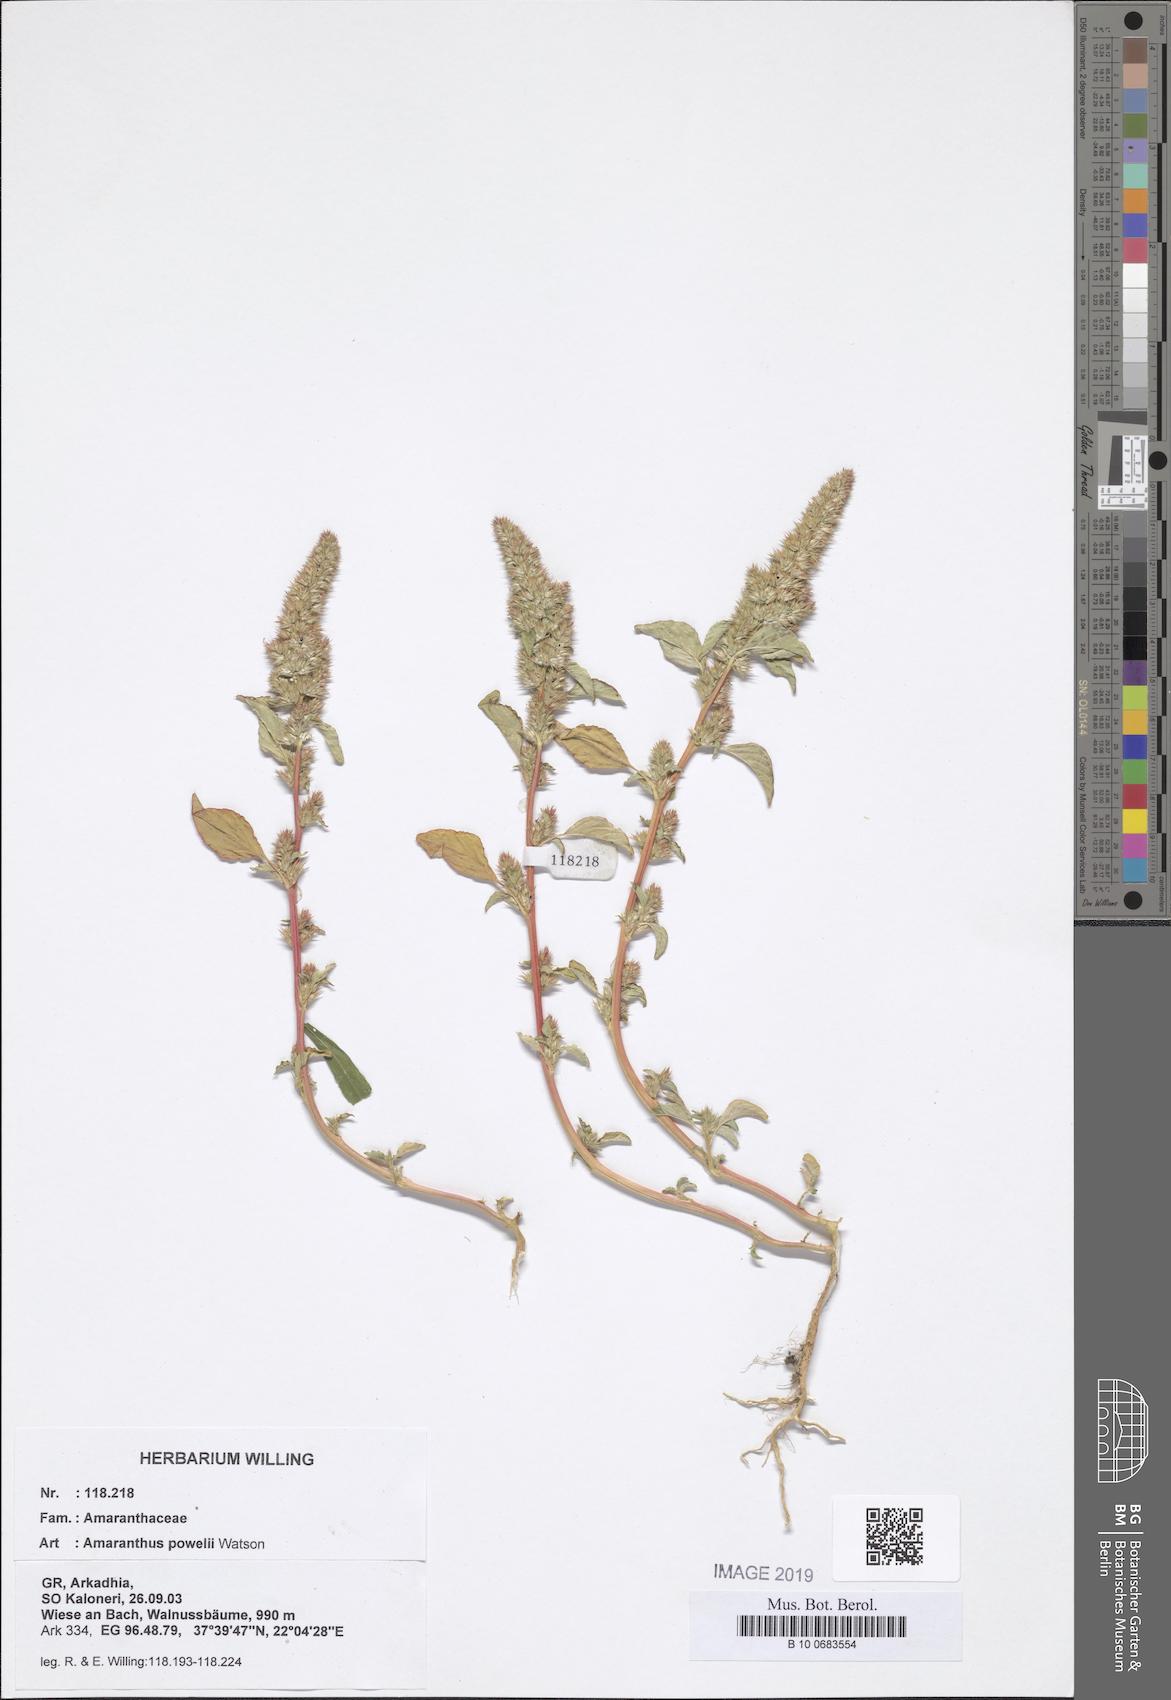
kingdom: Plantae
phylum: Tracheophyta
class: Magnoliopsida
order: Caryophyllales
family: Amaranthaceae
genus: Amaranthus
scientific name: Amaranthus powellii
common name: Powell's amaranth
